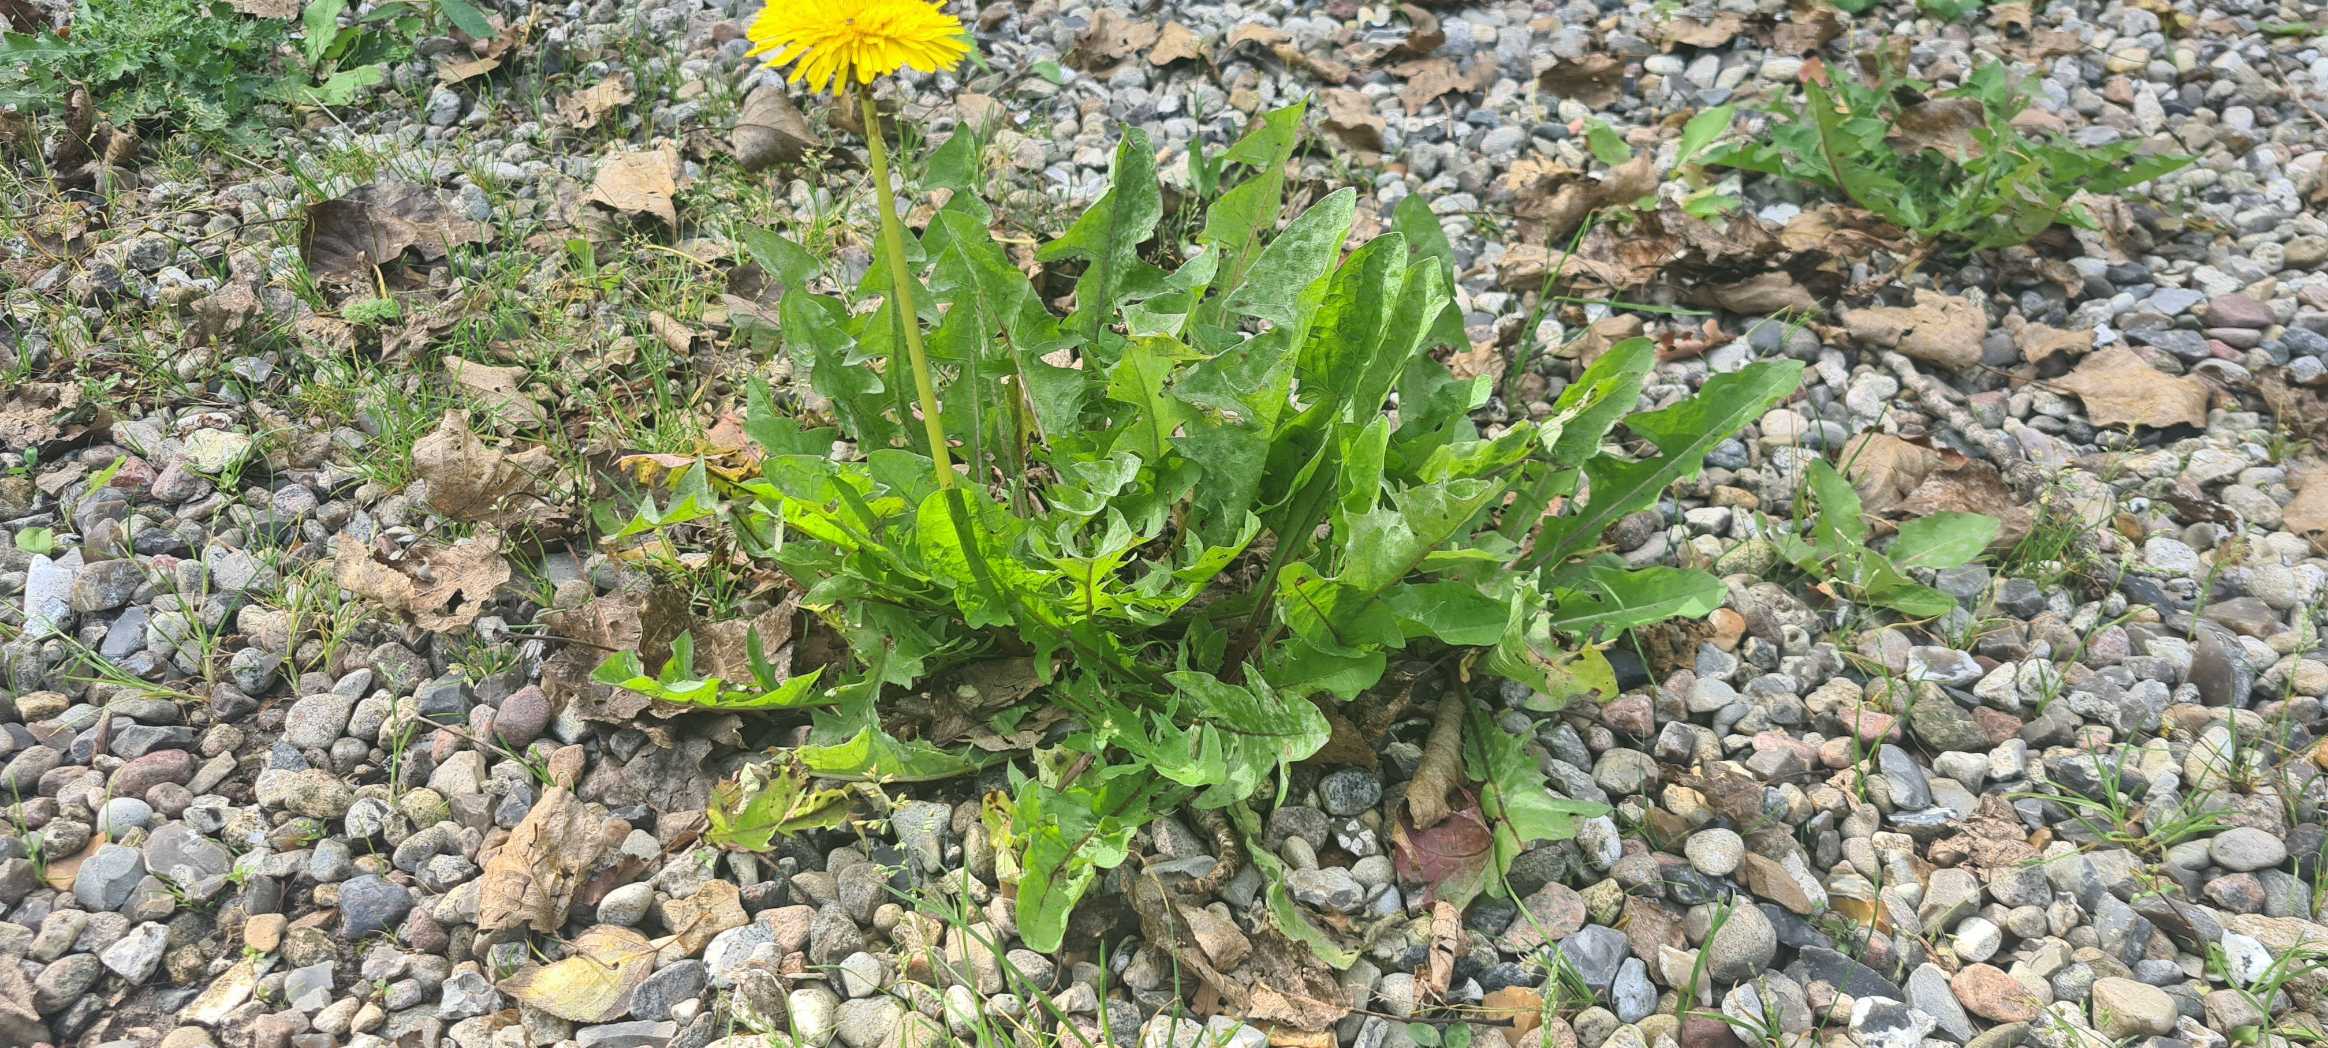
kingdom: Plantae
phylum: Tracheophyta
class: Magnoliopsida
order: Asterales
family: Asteraceae
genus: Taraxacum
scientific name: Taraxacum
